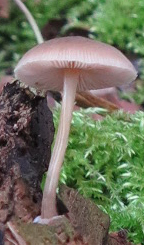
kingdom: Fungi
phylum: Basidiomycota
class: Agaricomycetes
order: Agaricales
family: Pluteaceae
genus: Pluteus
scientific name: Pluteus semibulbosus
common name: knoldet skærmhat
